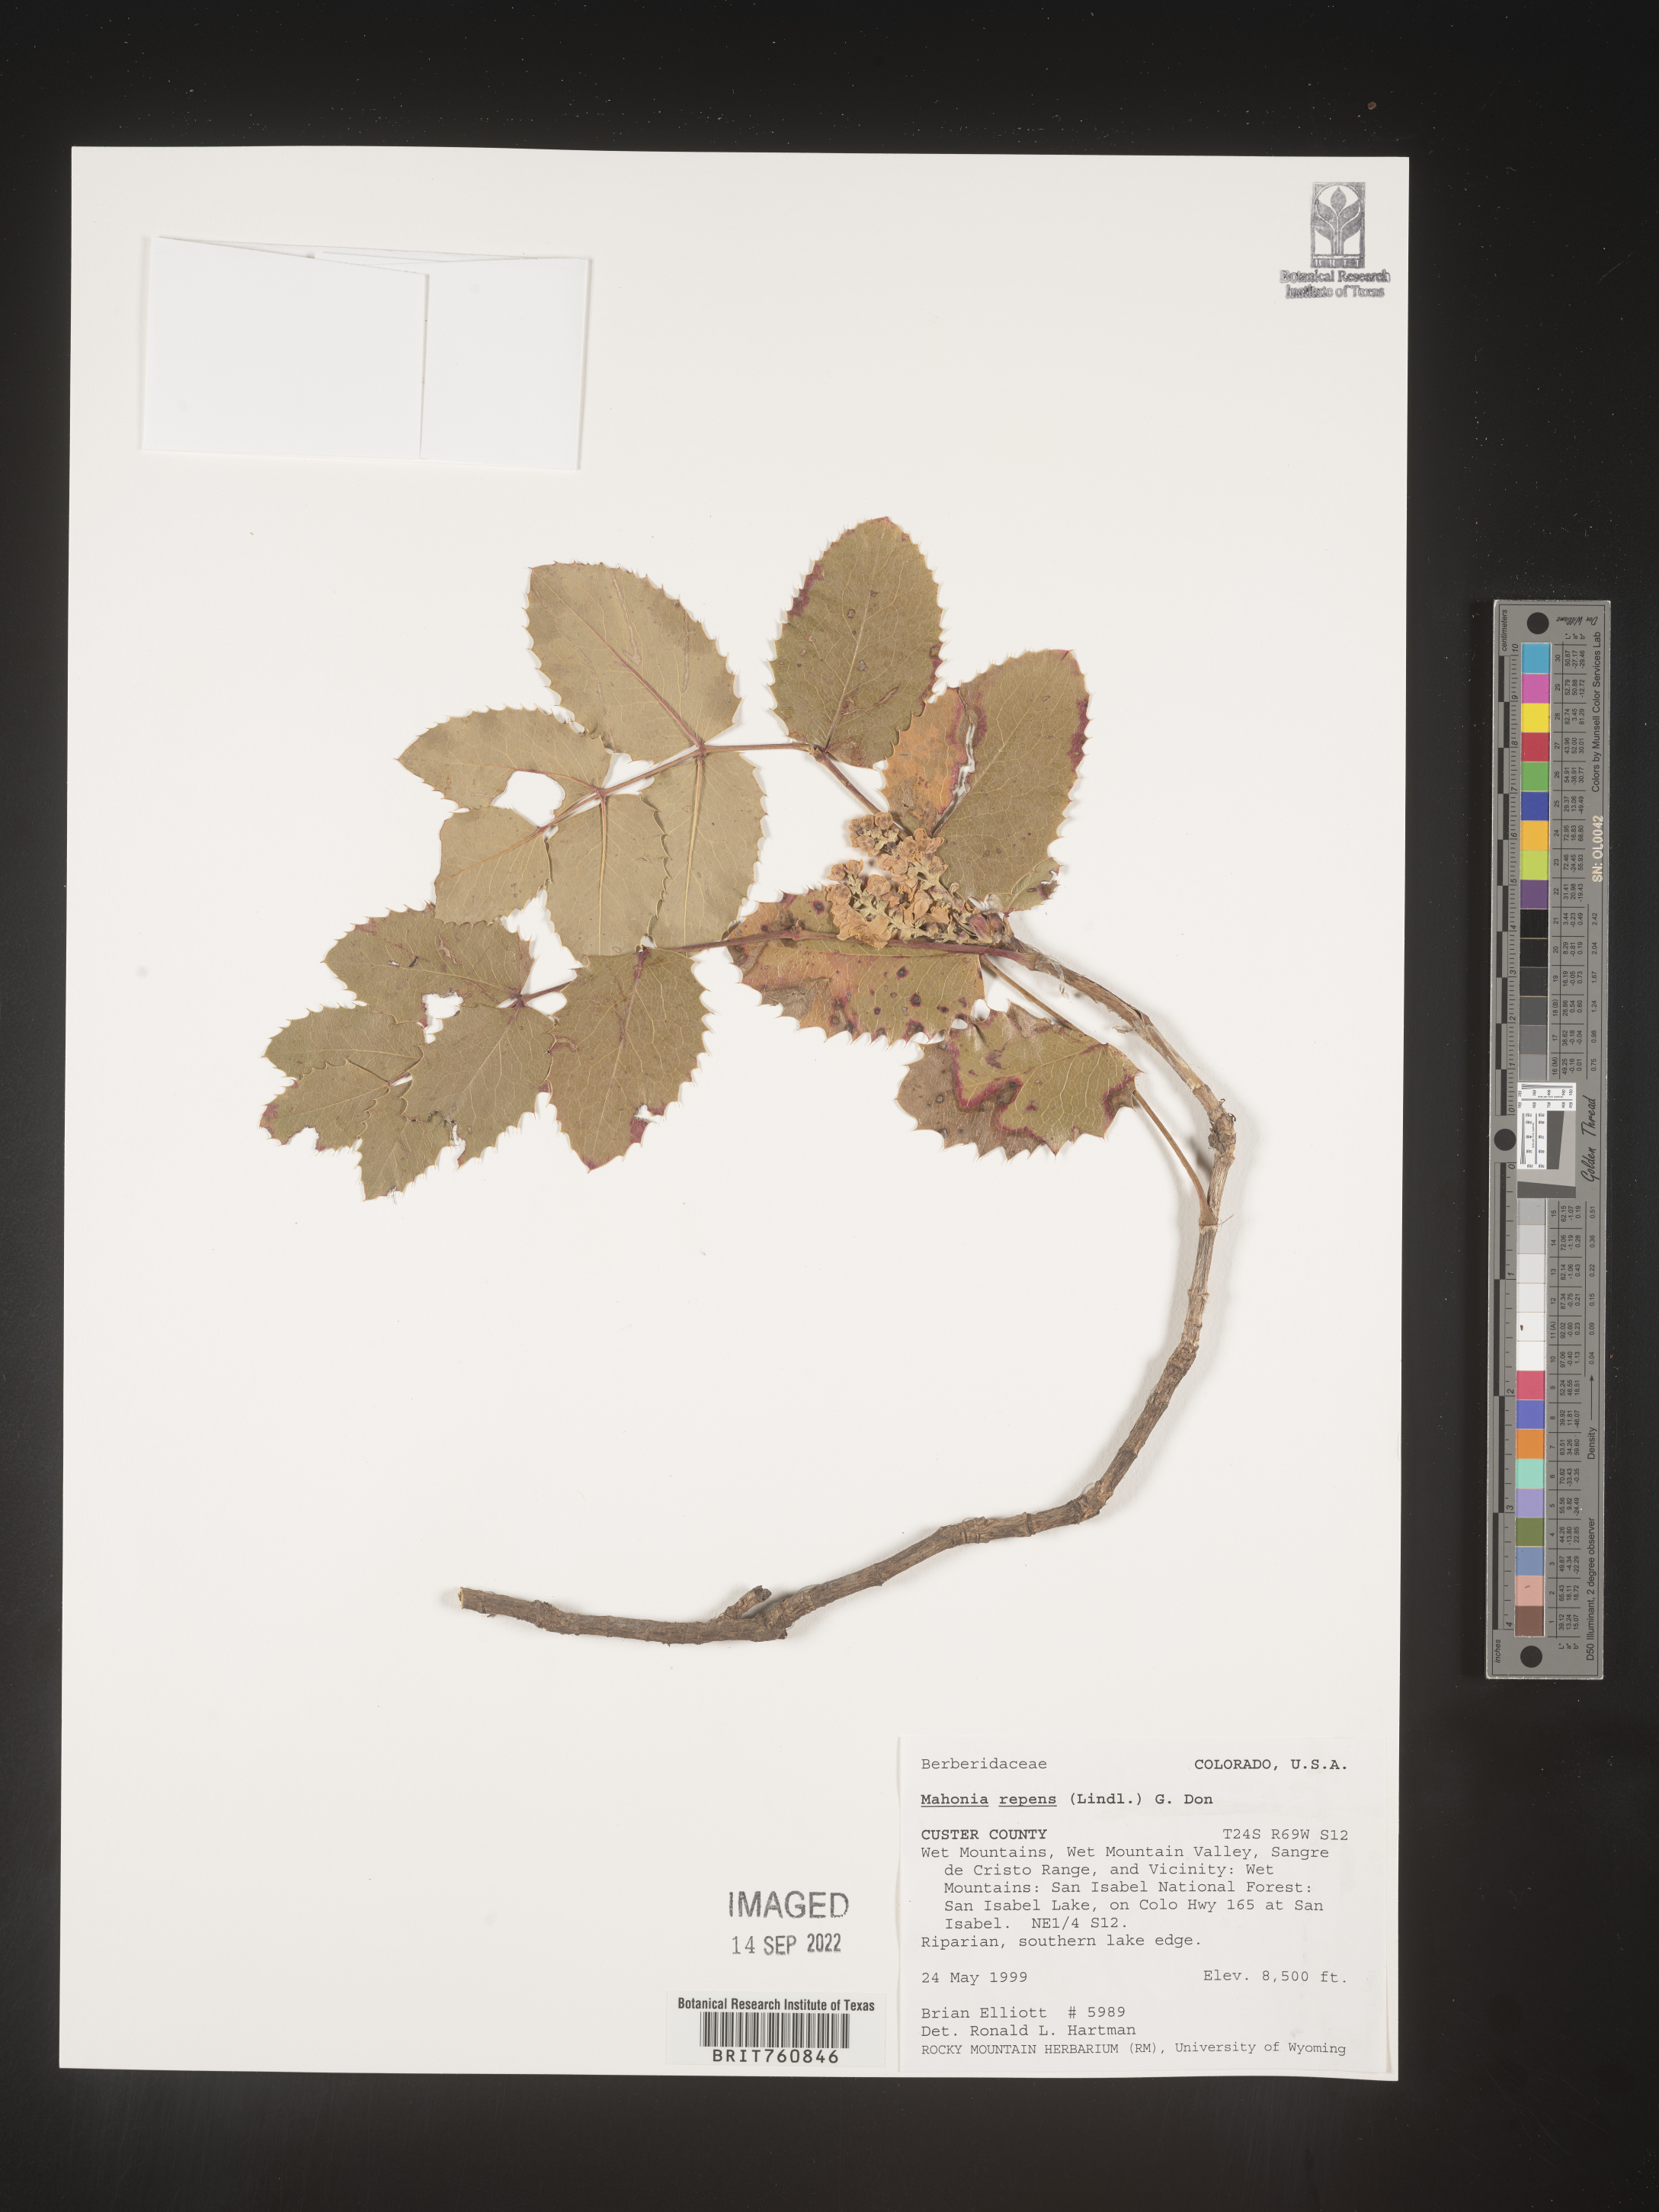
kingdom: Plantae
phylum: Tracheophyta
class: Magnoliopsida
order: Ranunculales
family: Berberidaceae
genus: Mahonia
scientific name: Mahonia repens
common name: Creeping oregon-grape
